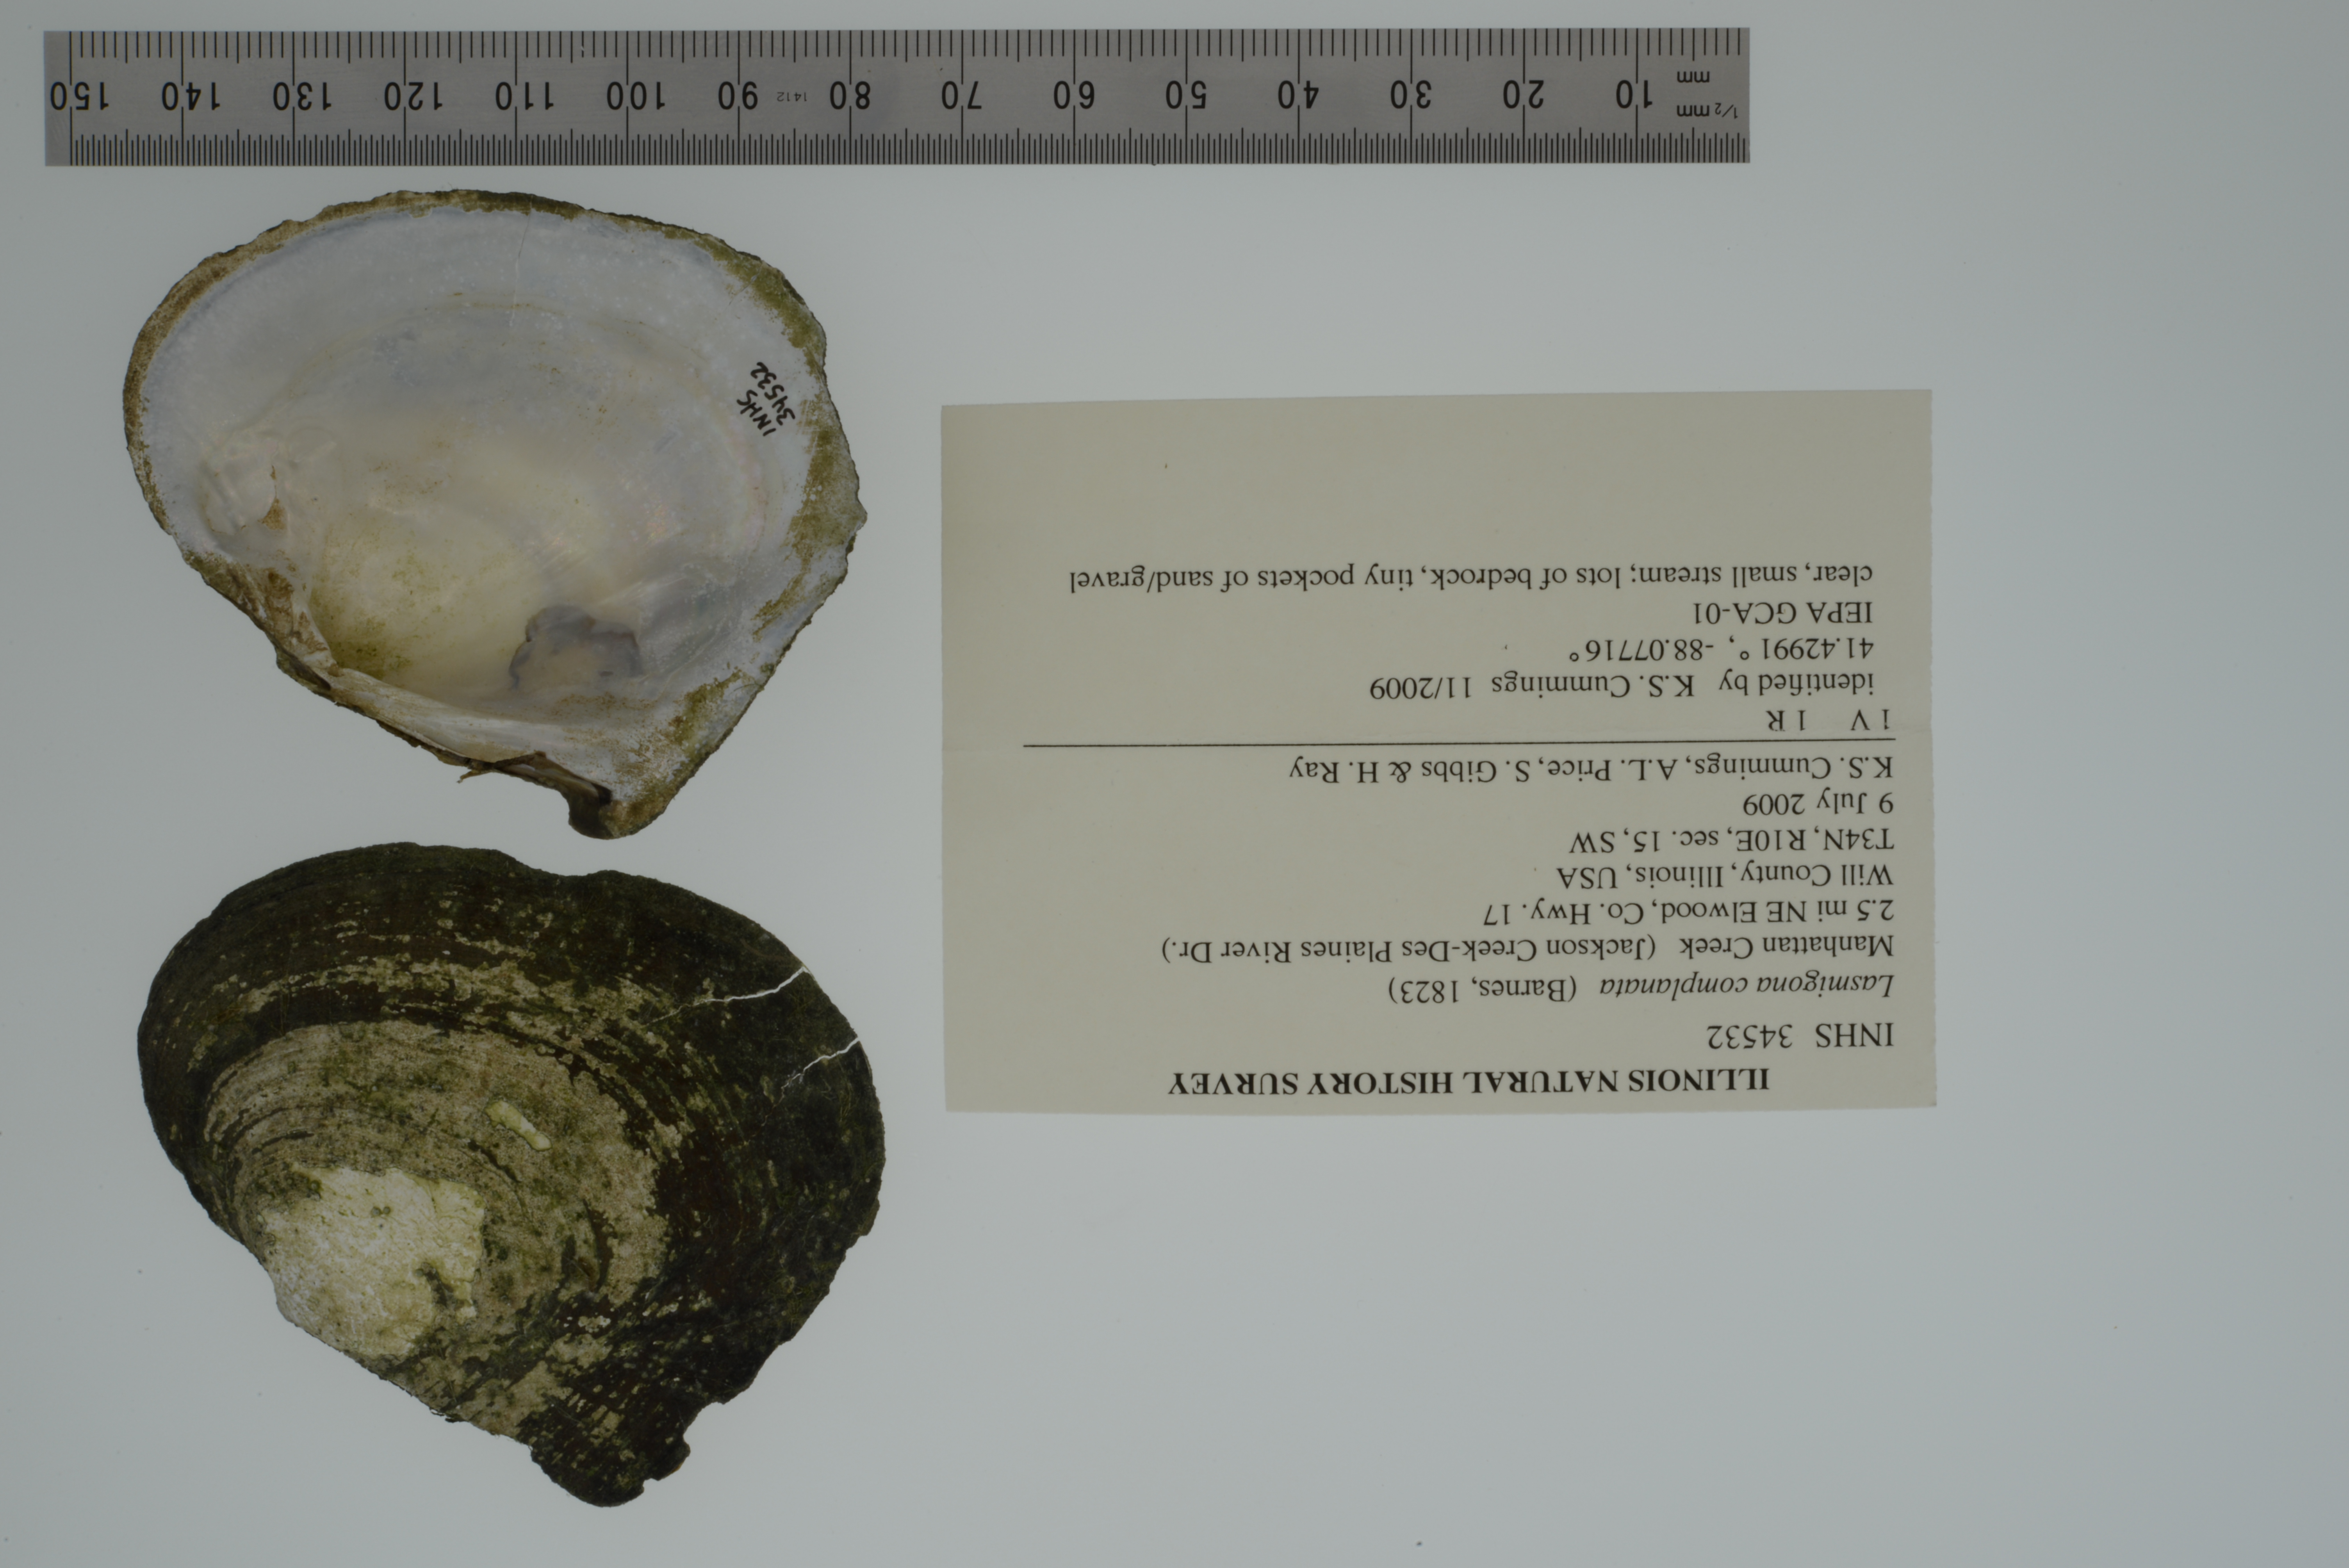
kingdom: Animalia
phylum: Mollusca
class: Bivalvia
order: Unionida
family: Unionidae
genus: Lasmigona
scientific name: Lasmigona complanata
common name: White heelsplitter
